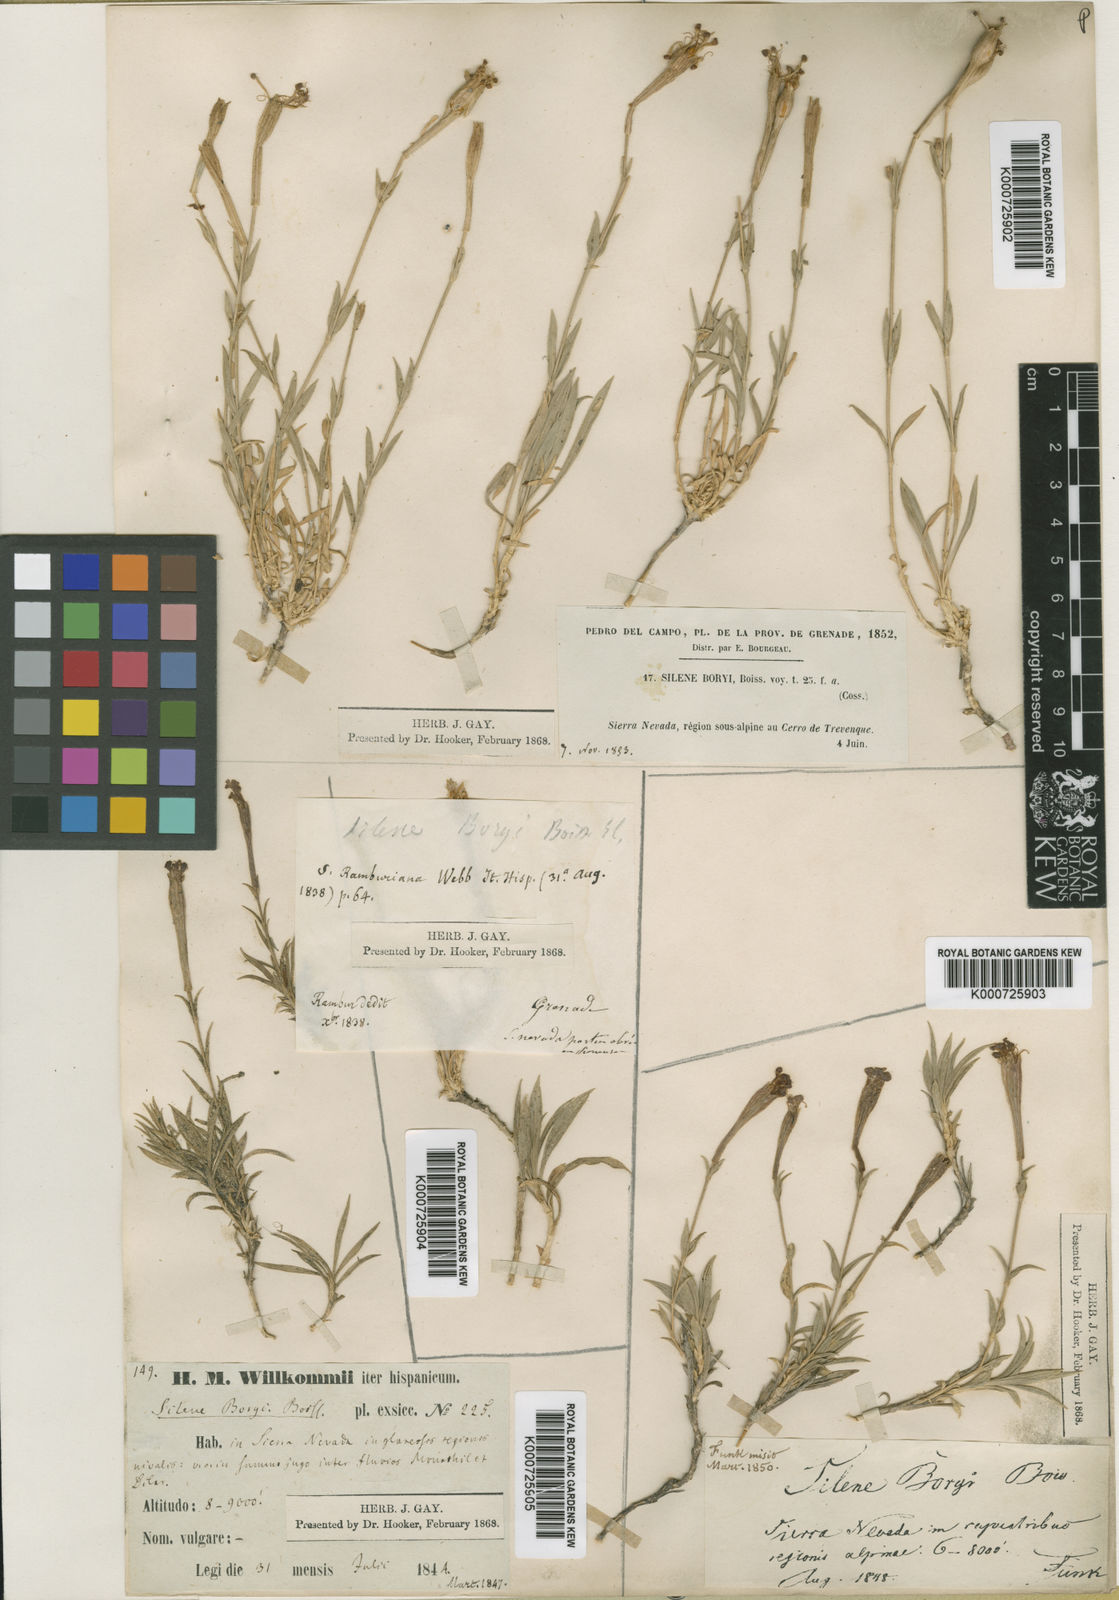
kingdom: Plantae
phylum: Tracheophyta
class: Magnoliopsida
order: Caryophyllales
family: Caryophyllaceae
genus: Silene
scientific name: Silene boryi
